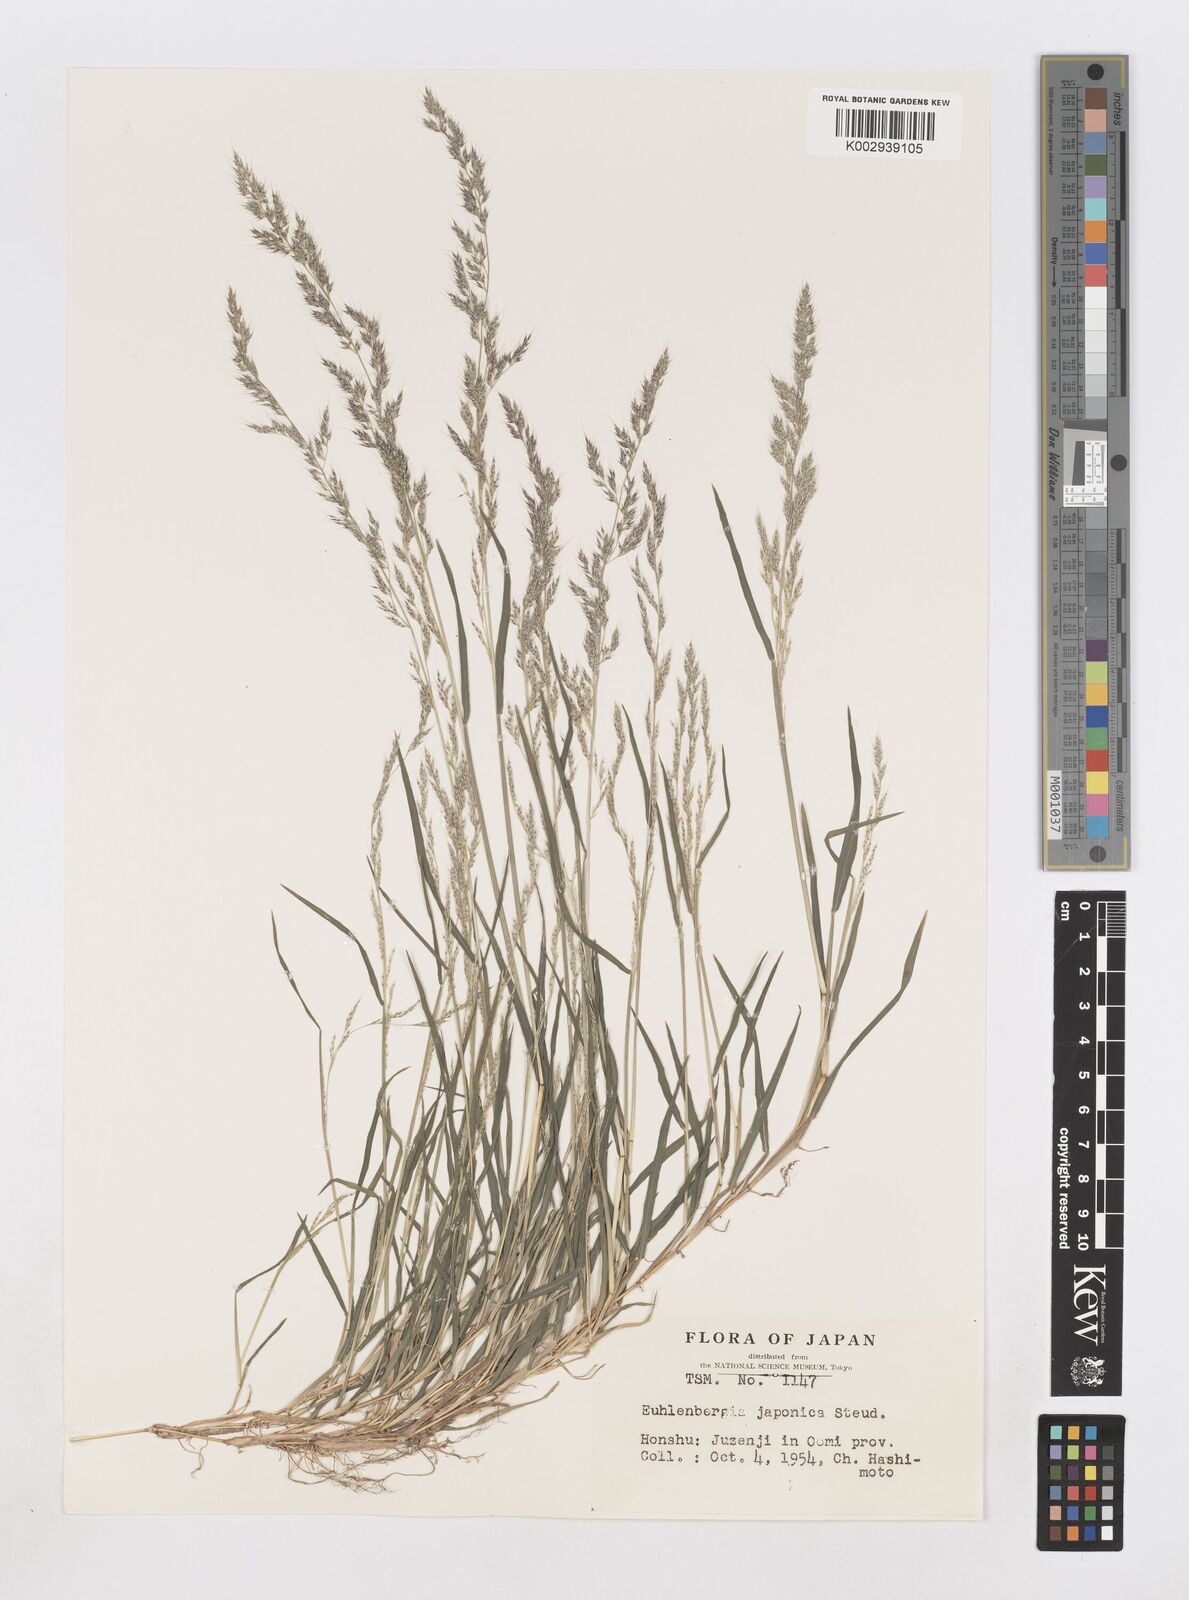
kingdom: Plantae
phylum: Tracheophyta
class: Liliopsida
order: Poales
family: Poaceae
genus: Muhlenbergia
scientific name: Muhlenbergia japonica
